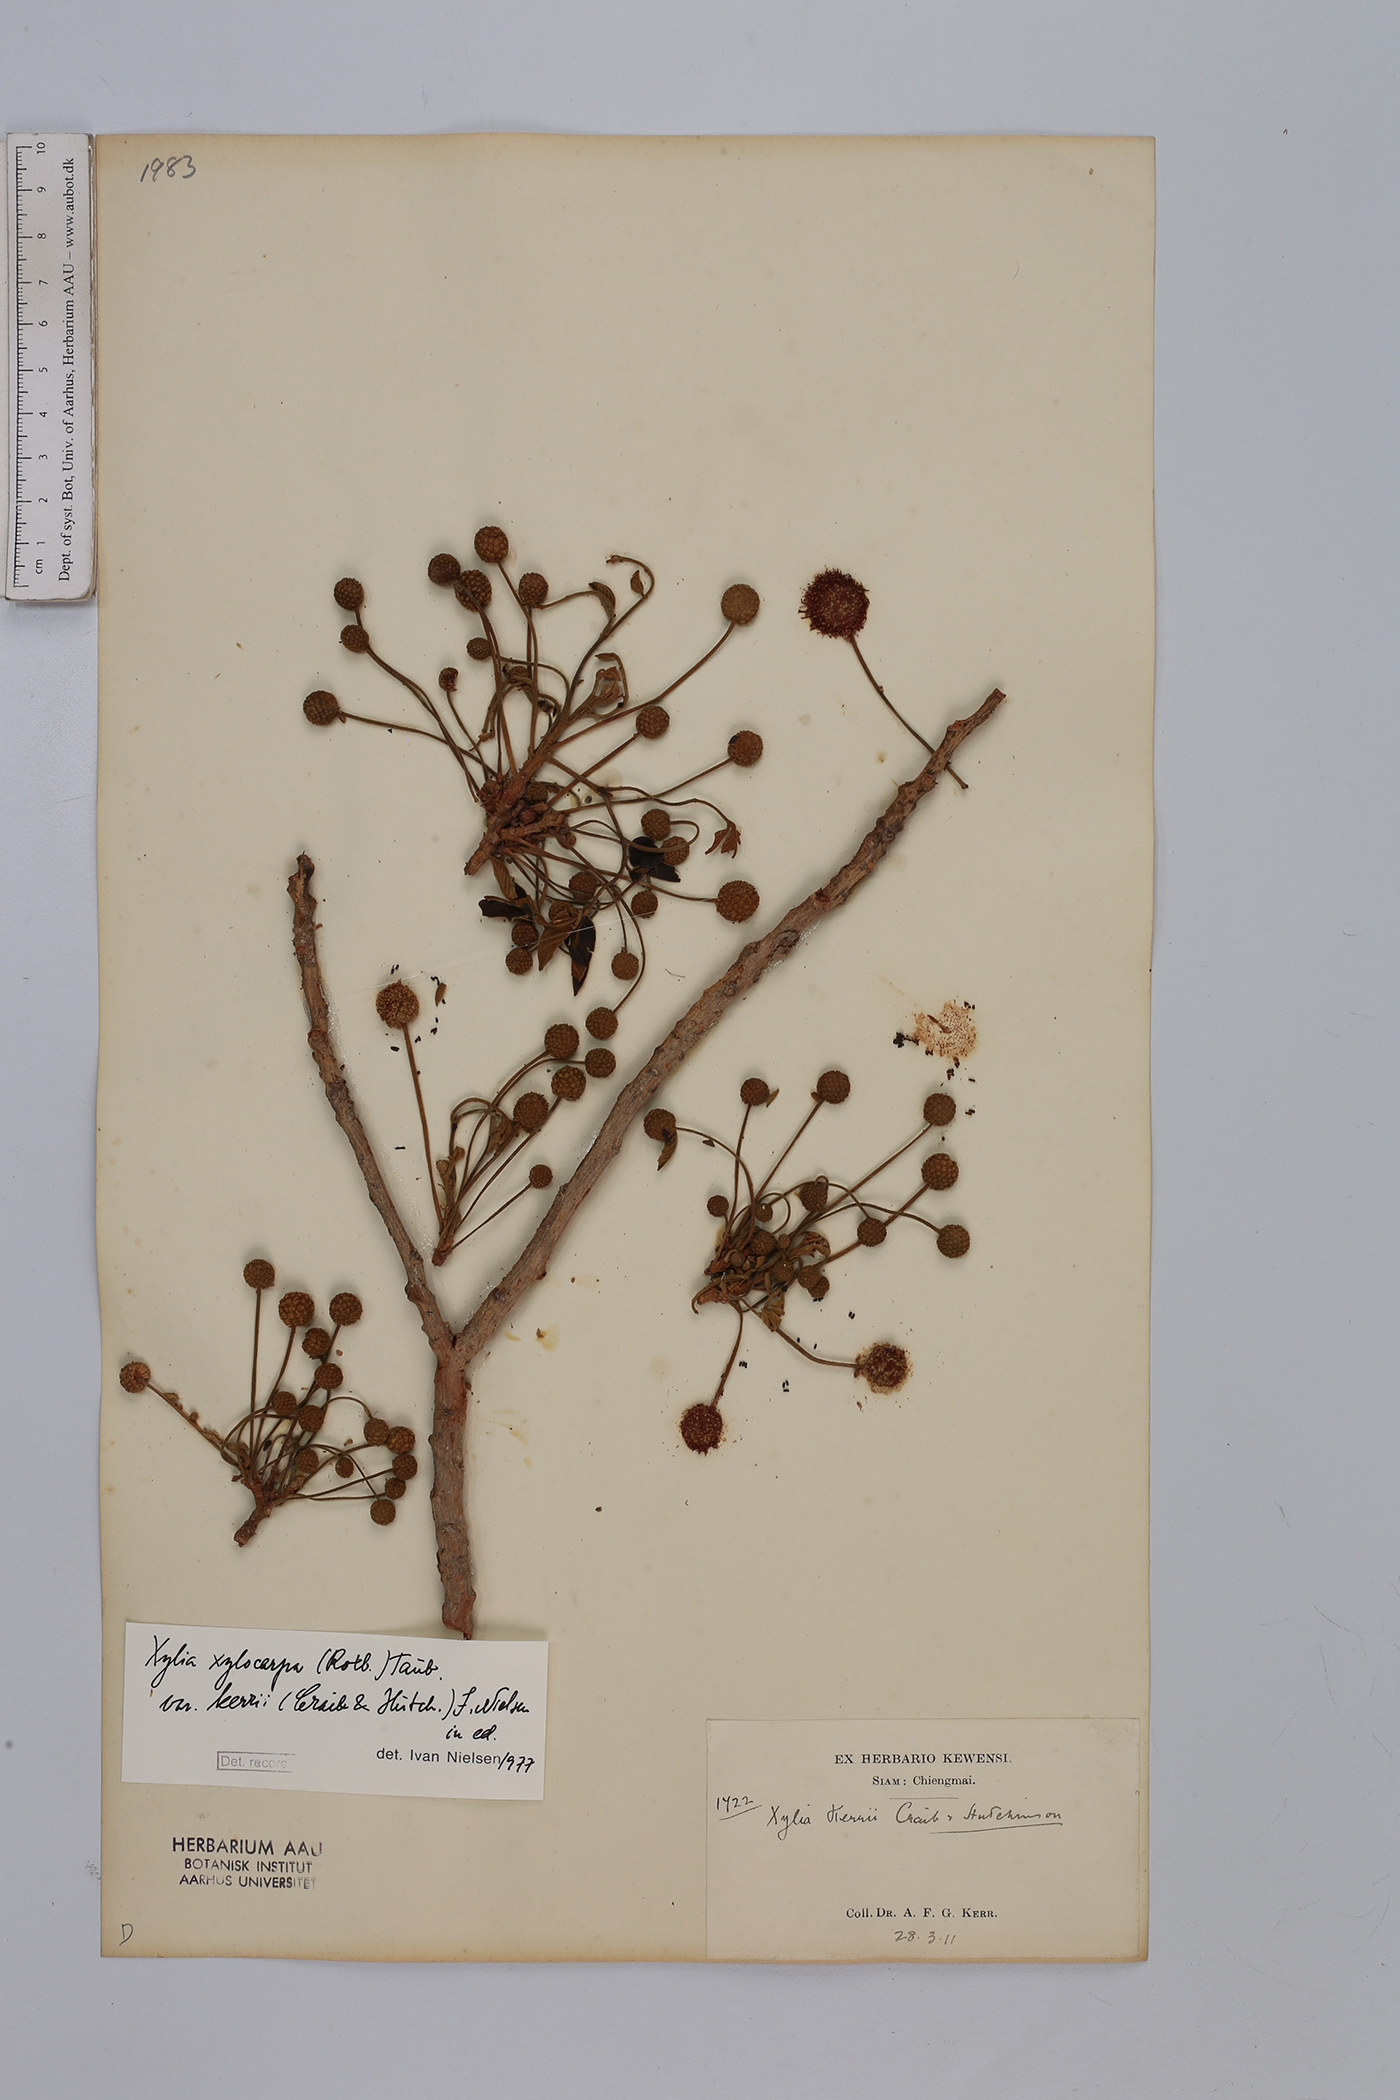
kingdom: Plantae
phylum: Tracheophyta
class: Magnoliopsida
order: Fabales
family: Fabaceae
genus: Xylia
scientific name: Xylia xylocarpa
